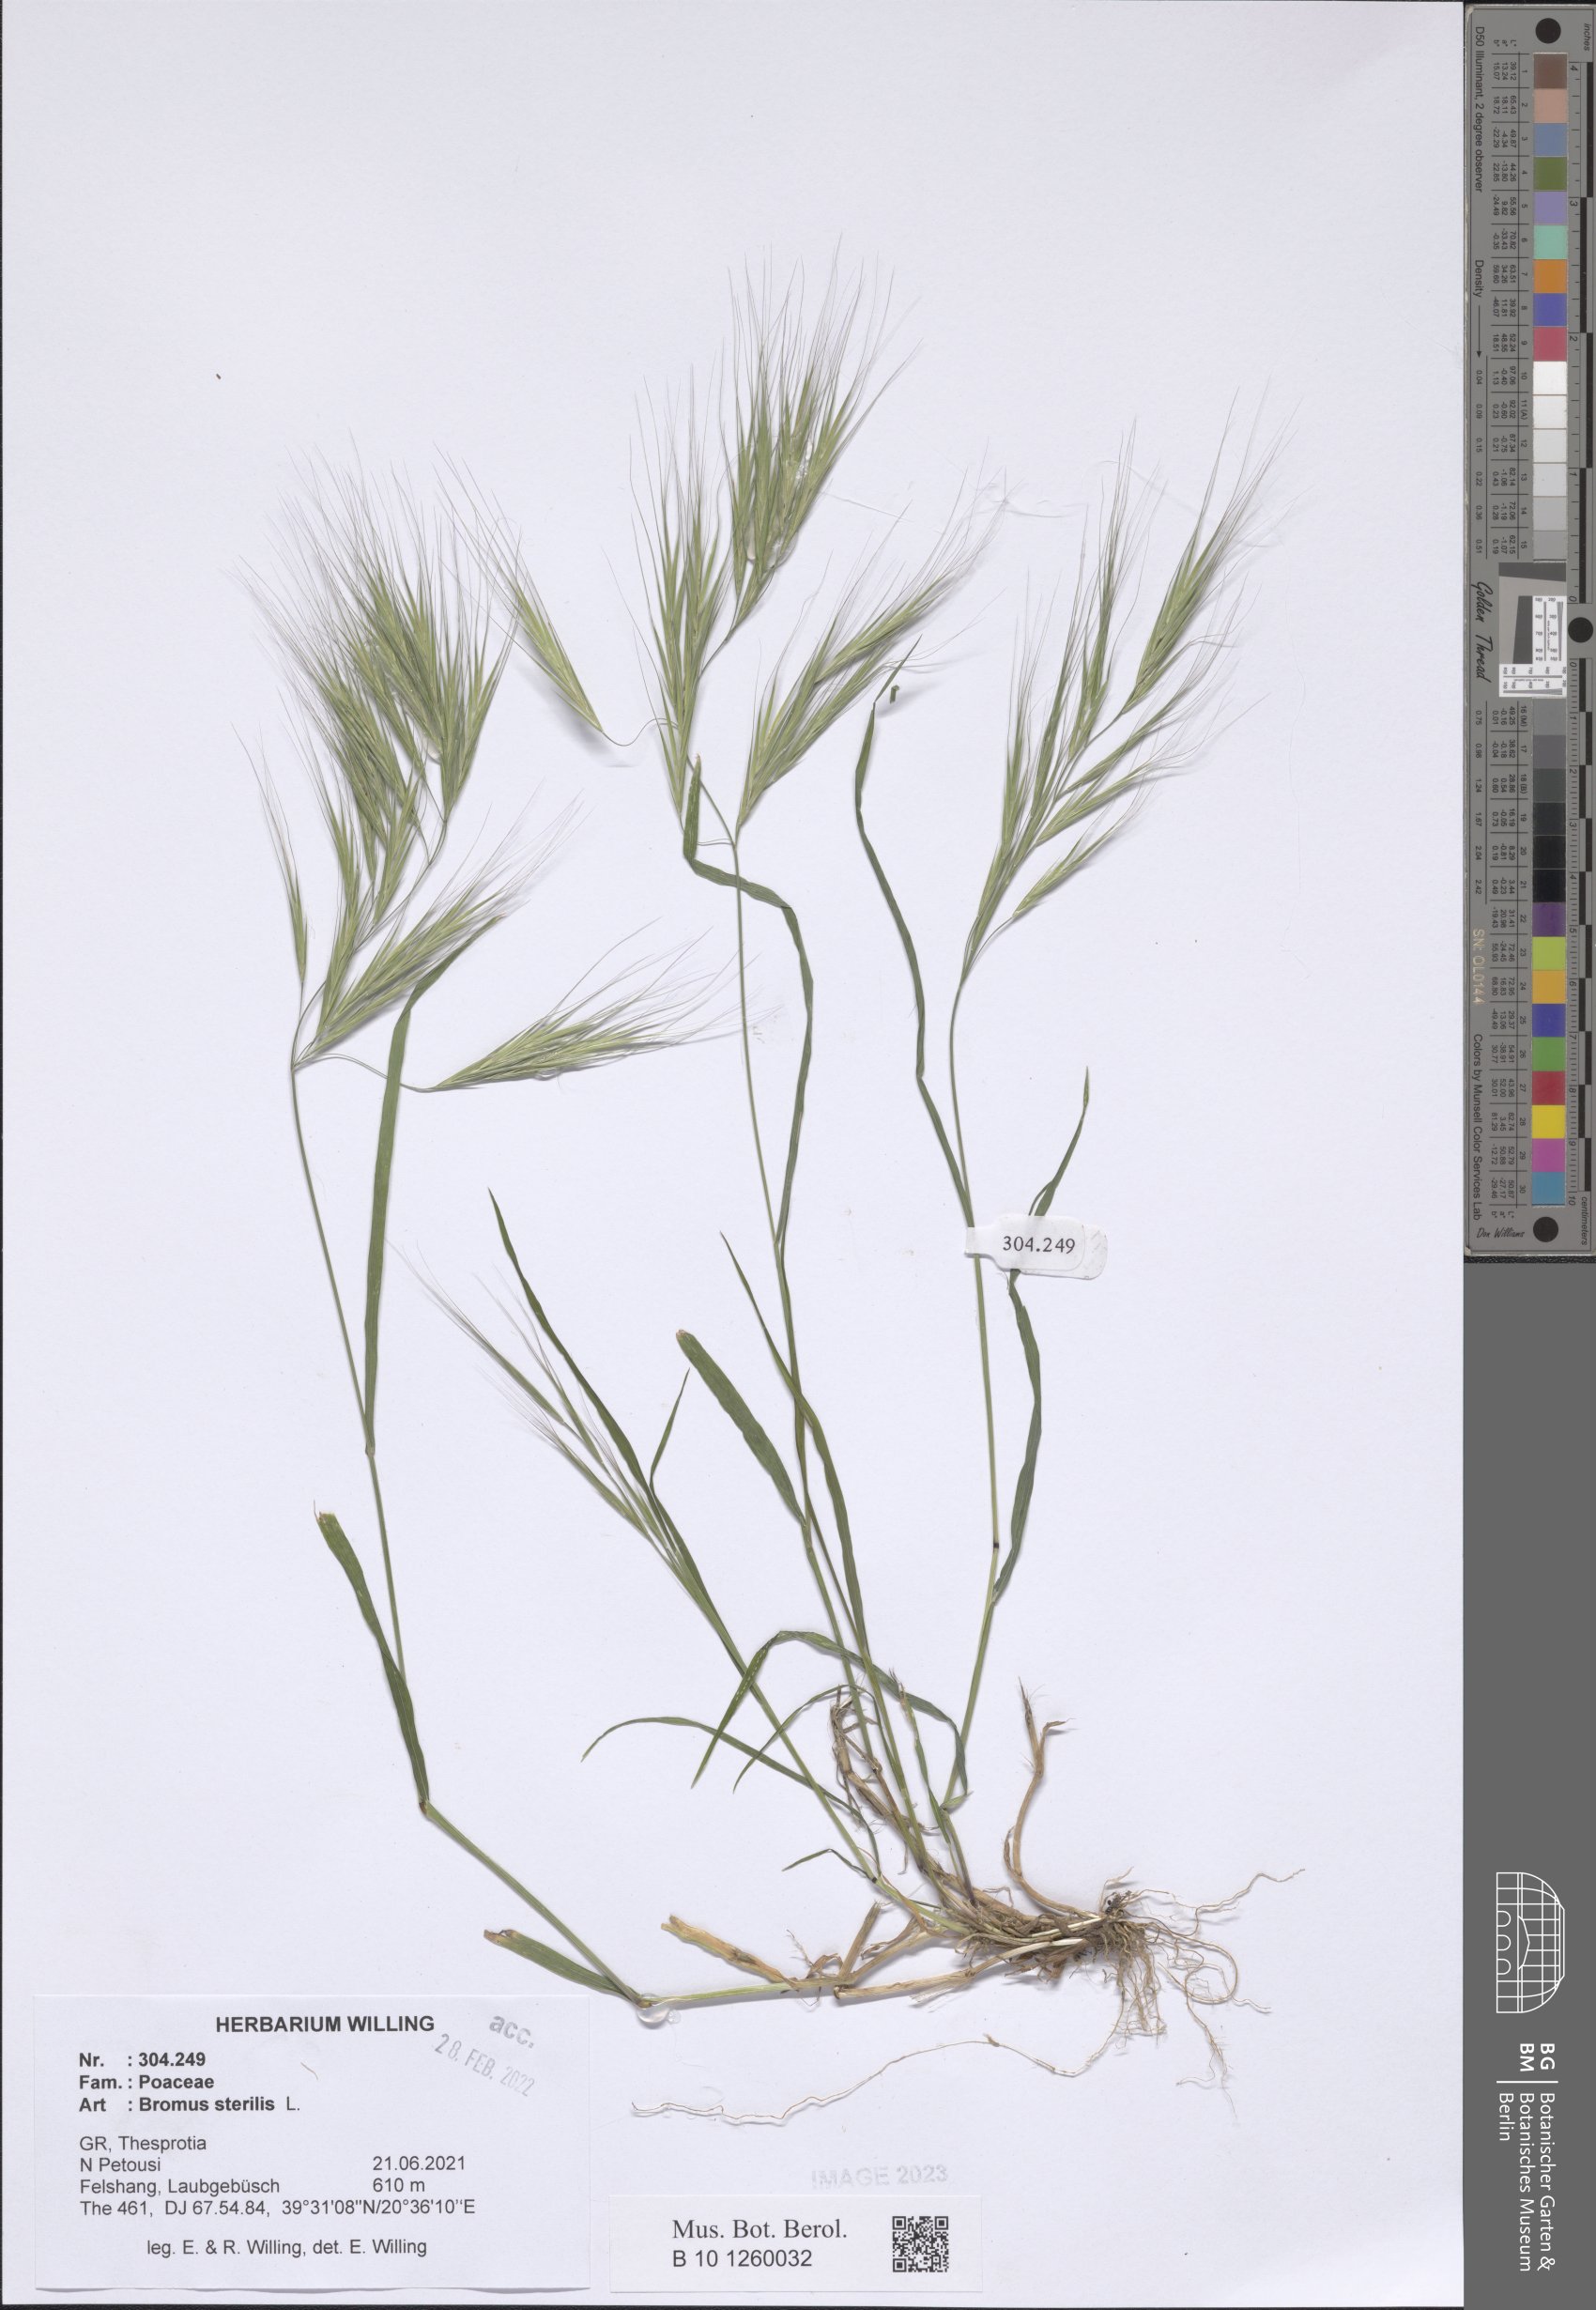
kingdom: Plantae
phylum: Tracheophyta
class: Liliopsida
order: Poales
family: Poaceae
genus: Bromus
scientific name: Bromus sterilis
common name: Poverty brome
